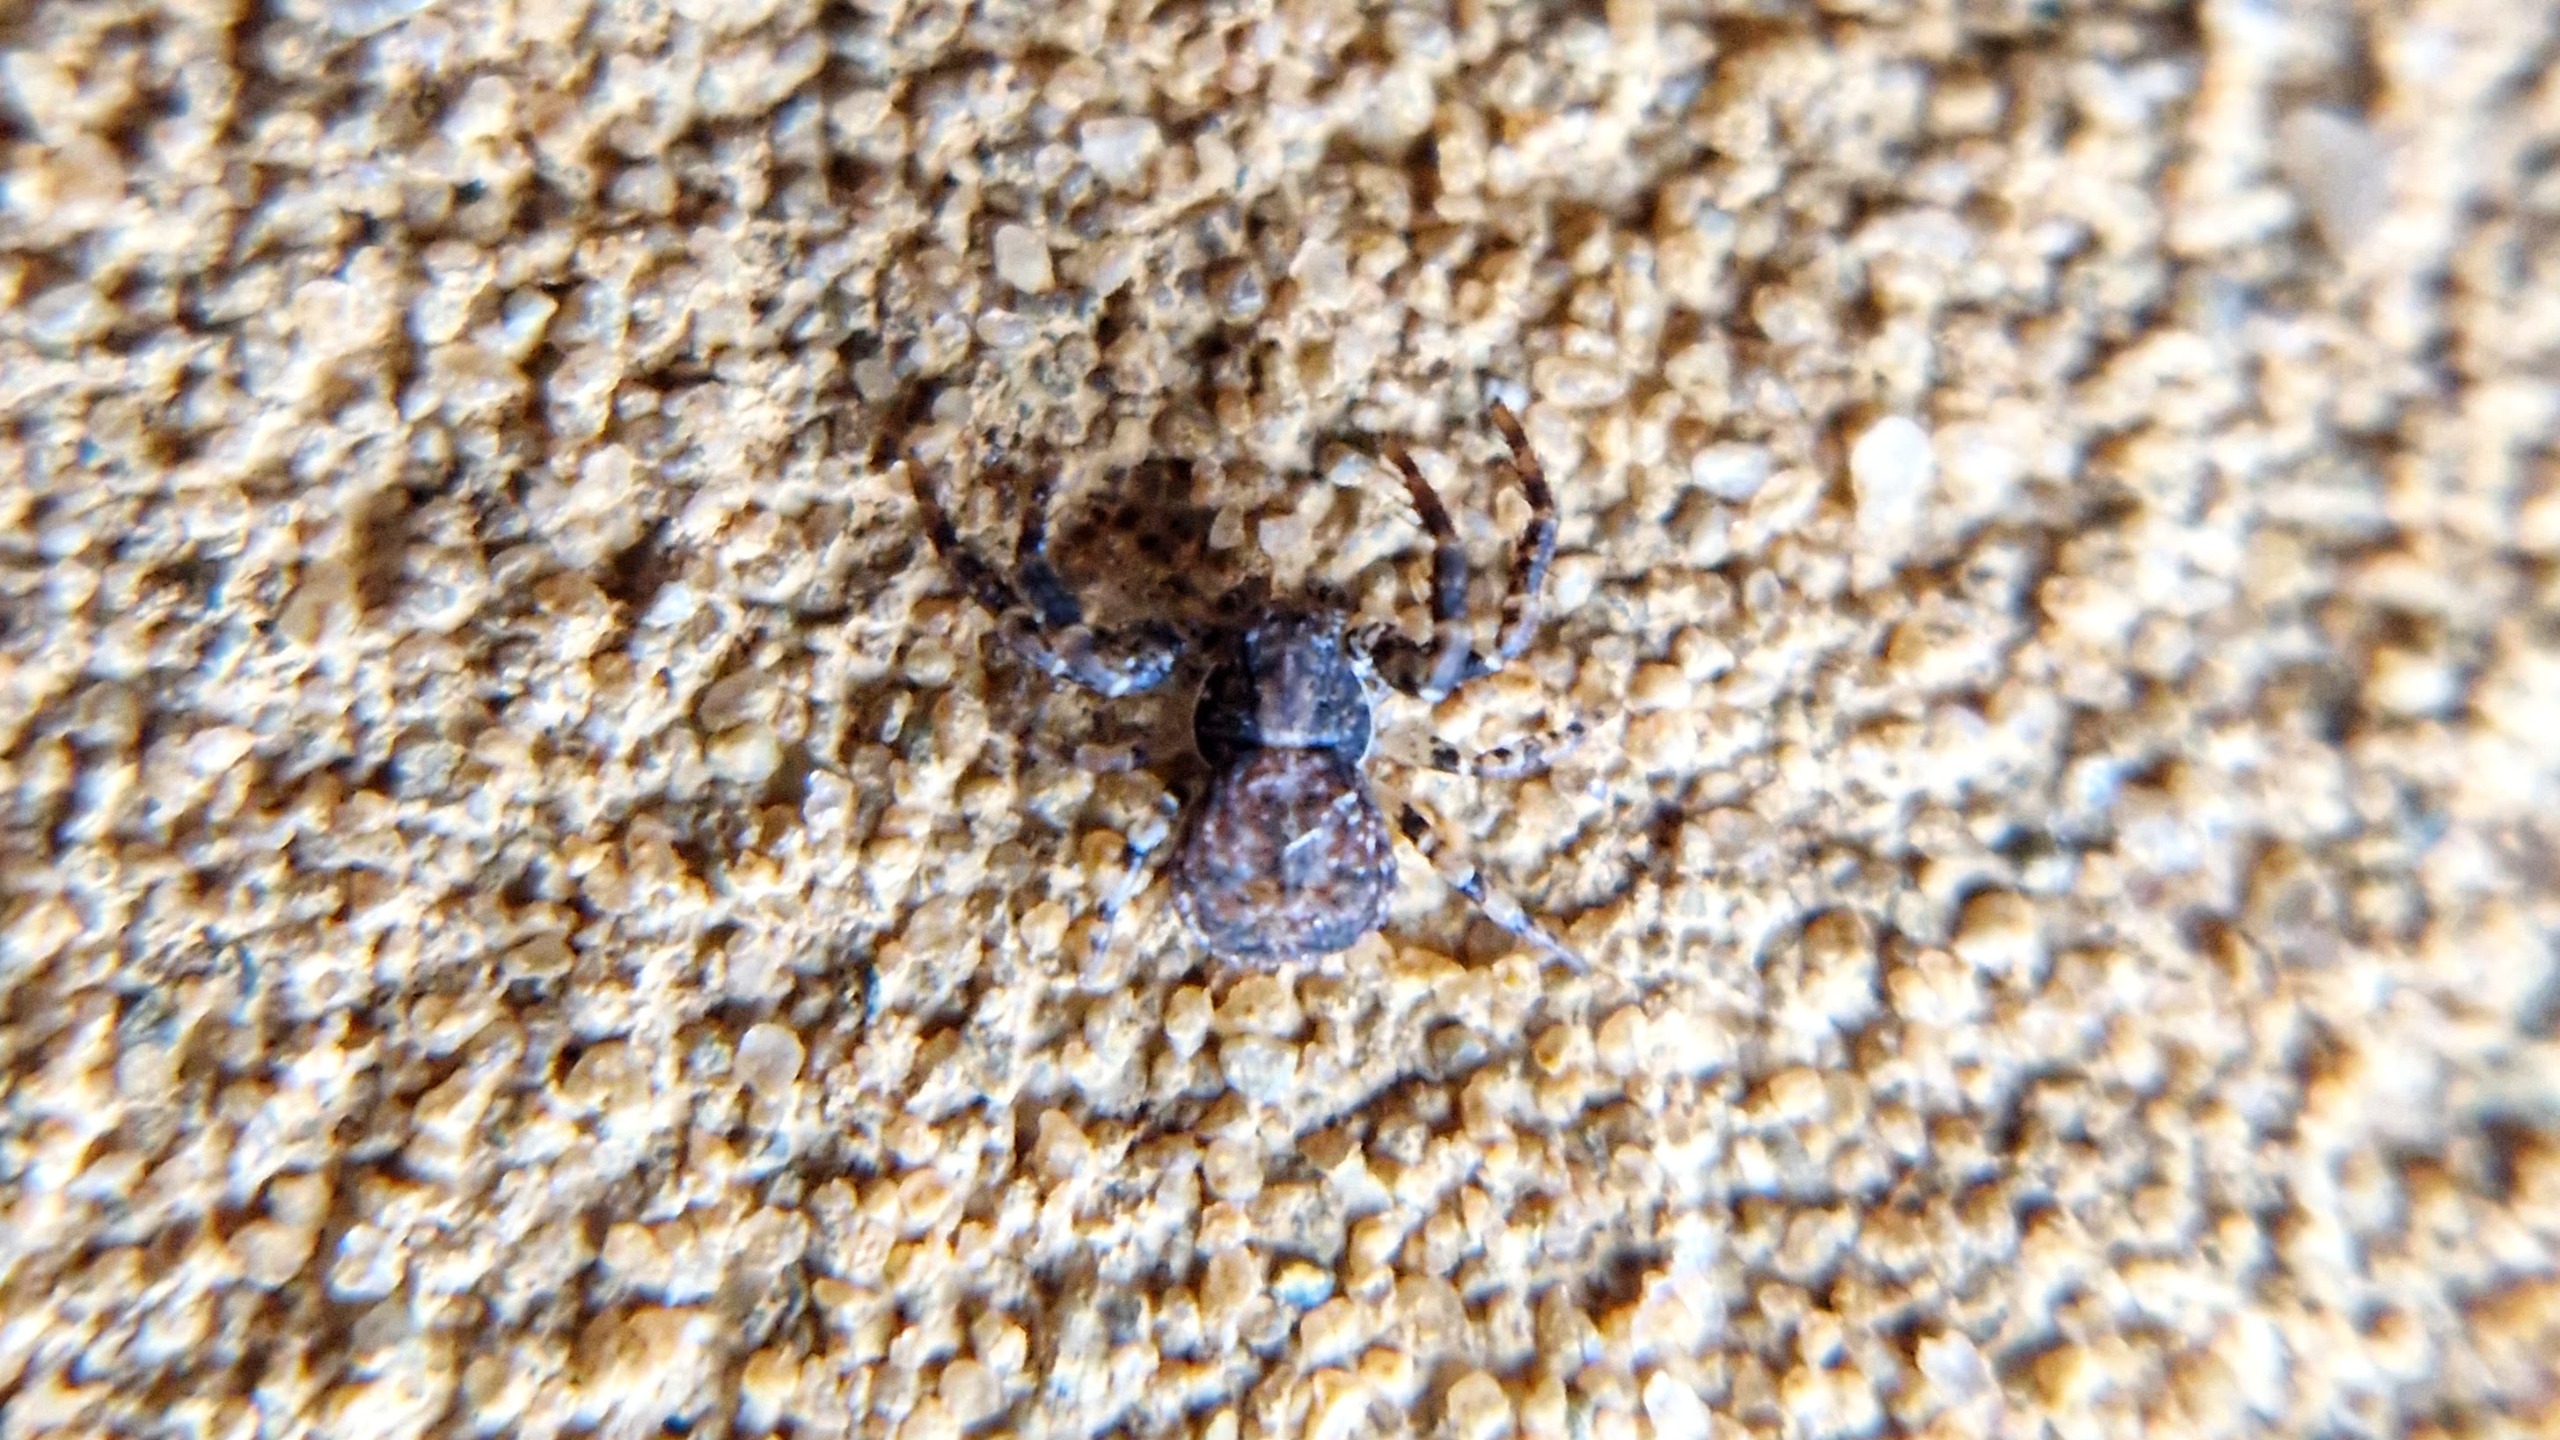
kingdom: Animalia
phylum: Arthropoda
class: Arachnida
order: Araneae
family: Thomisidae
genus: Ozyptila
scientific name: Ozyptila praticola
